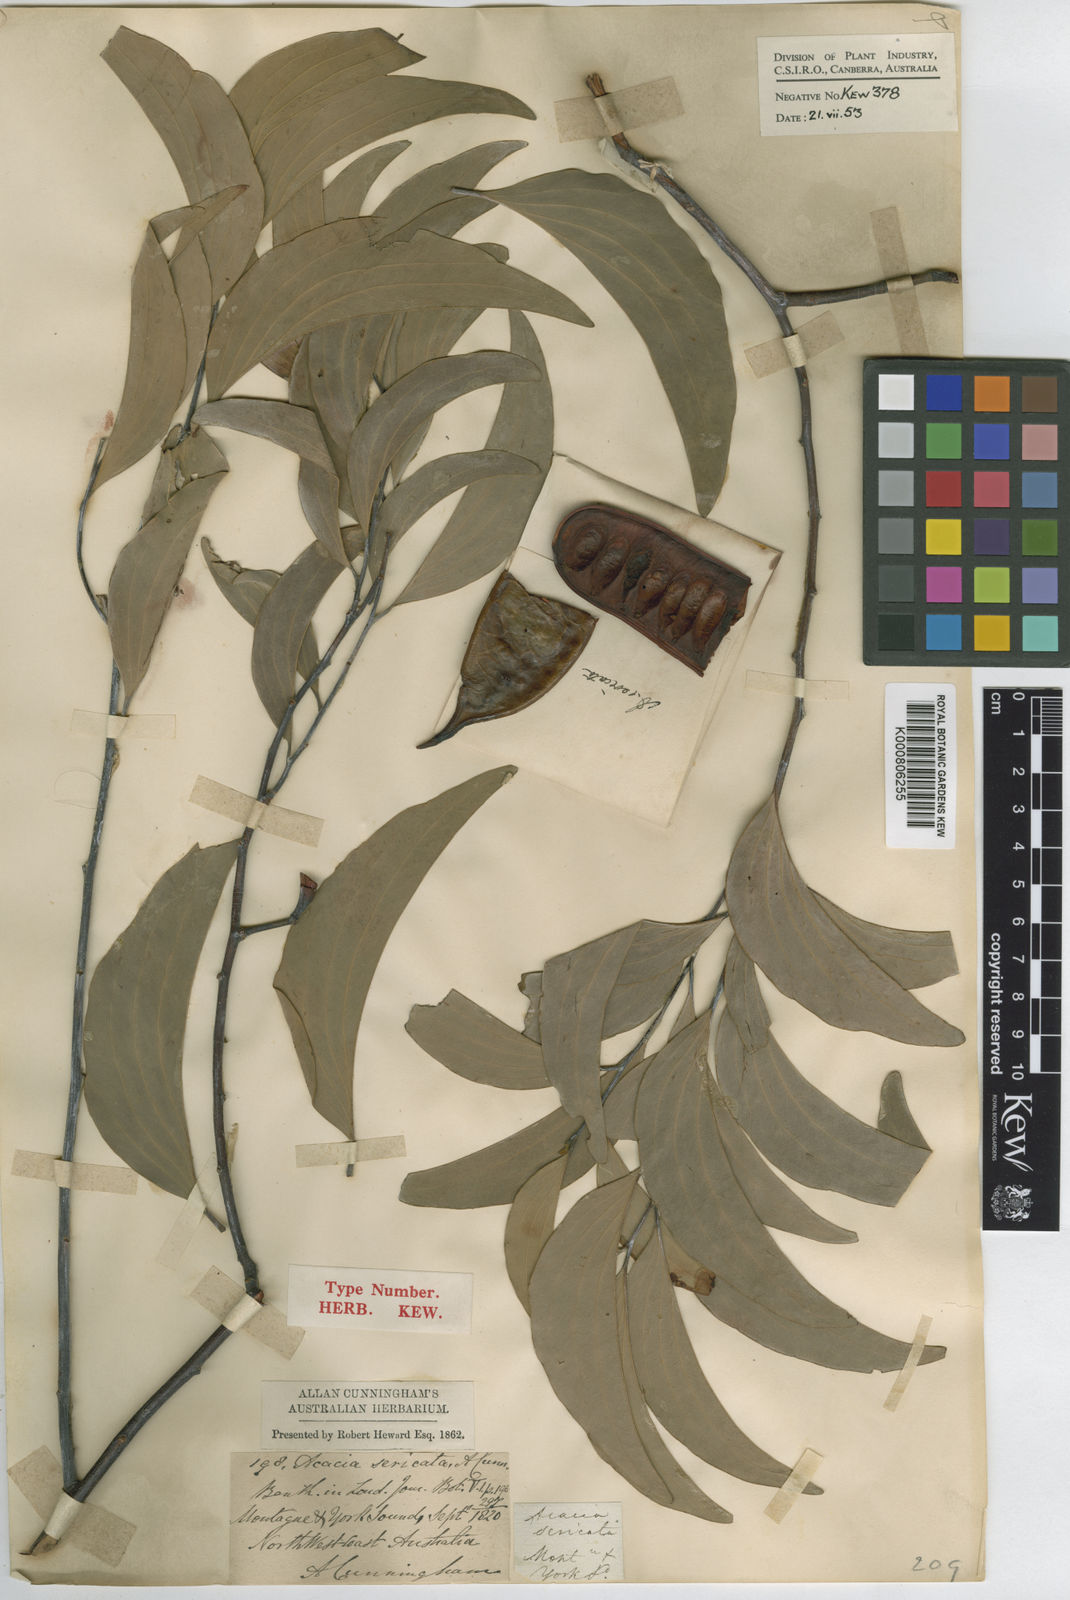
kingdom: Plantae
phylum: Tracheophyta
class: Magnoliopsida
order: Fabales
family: Fabaceae
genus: Acacia
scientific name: Acacia
